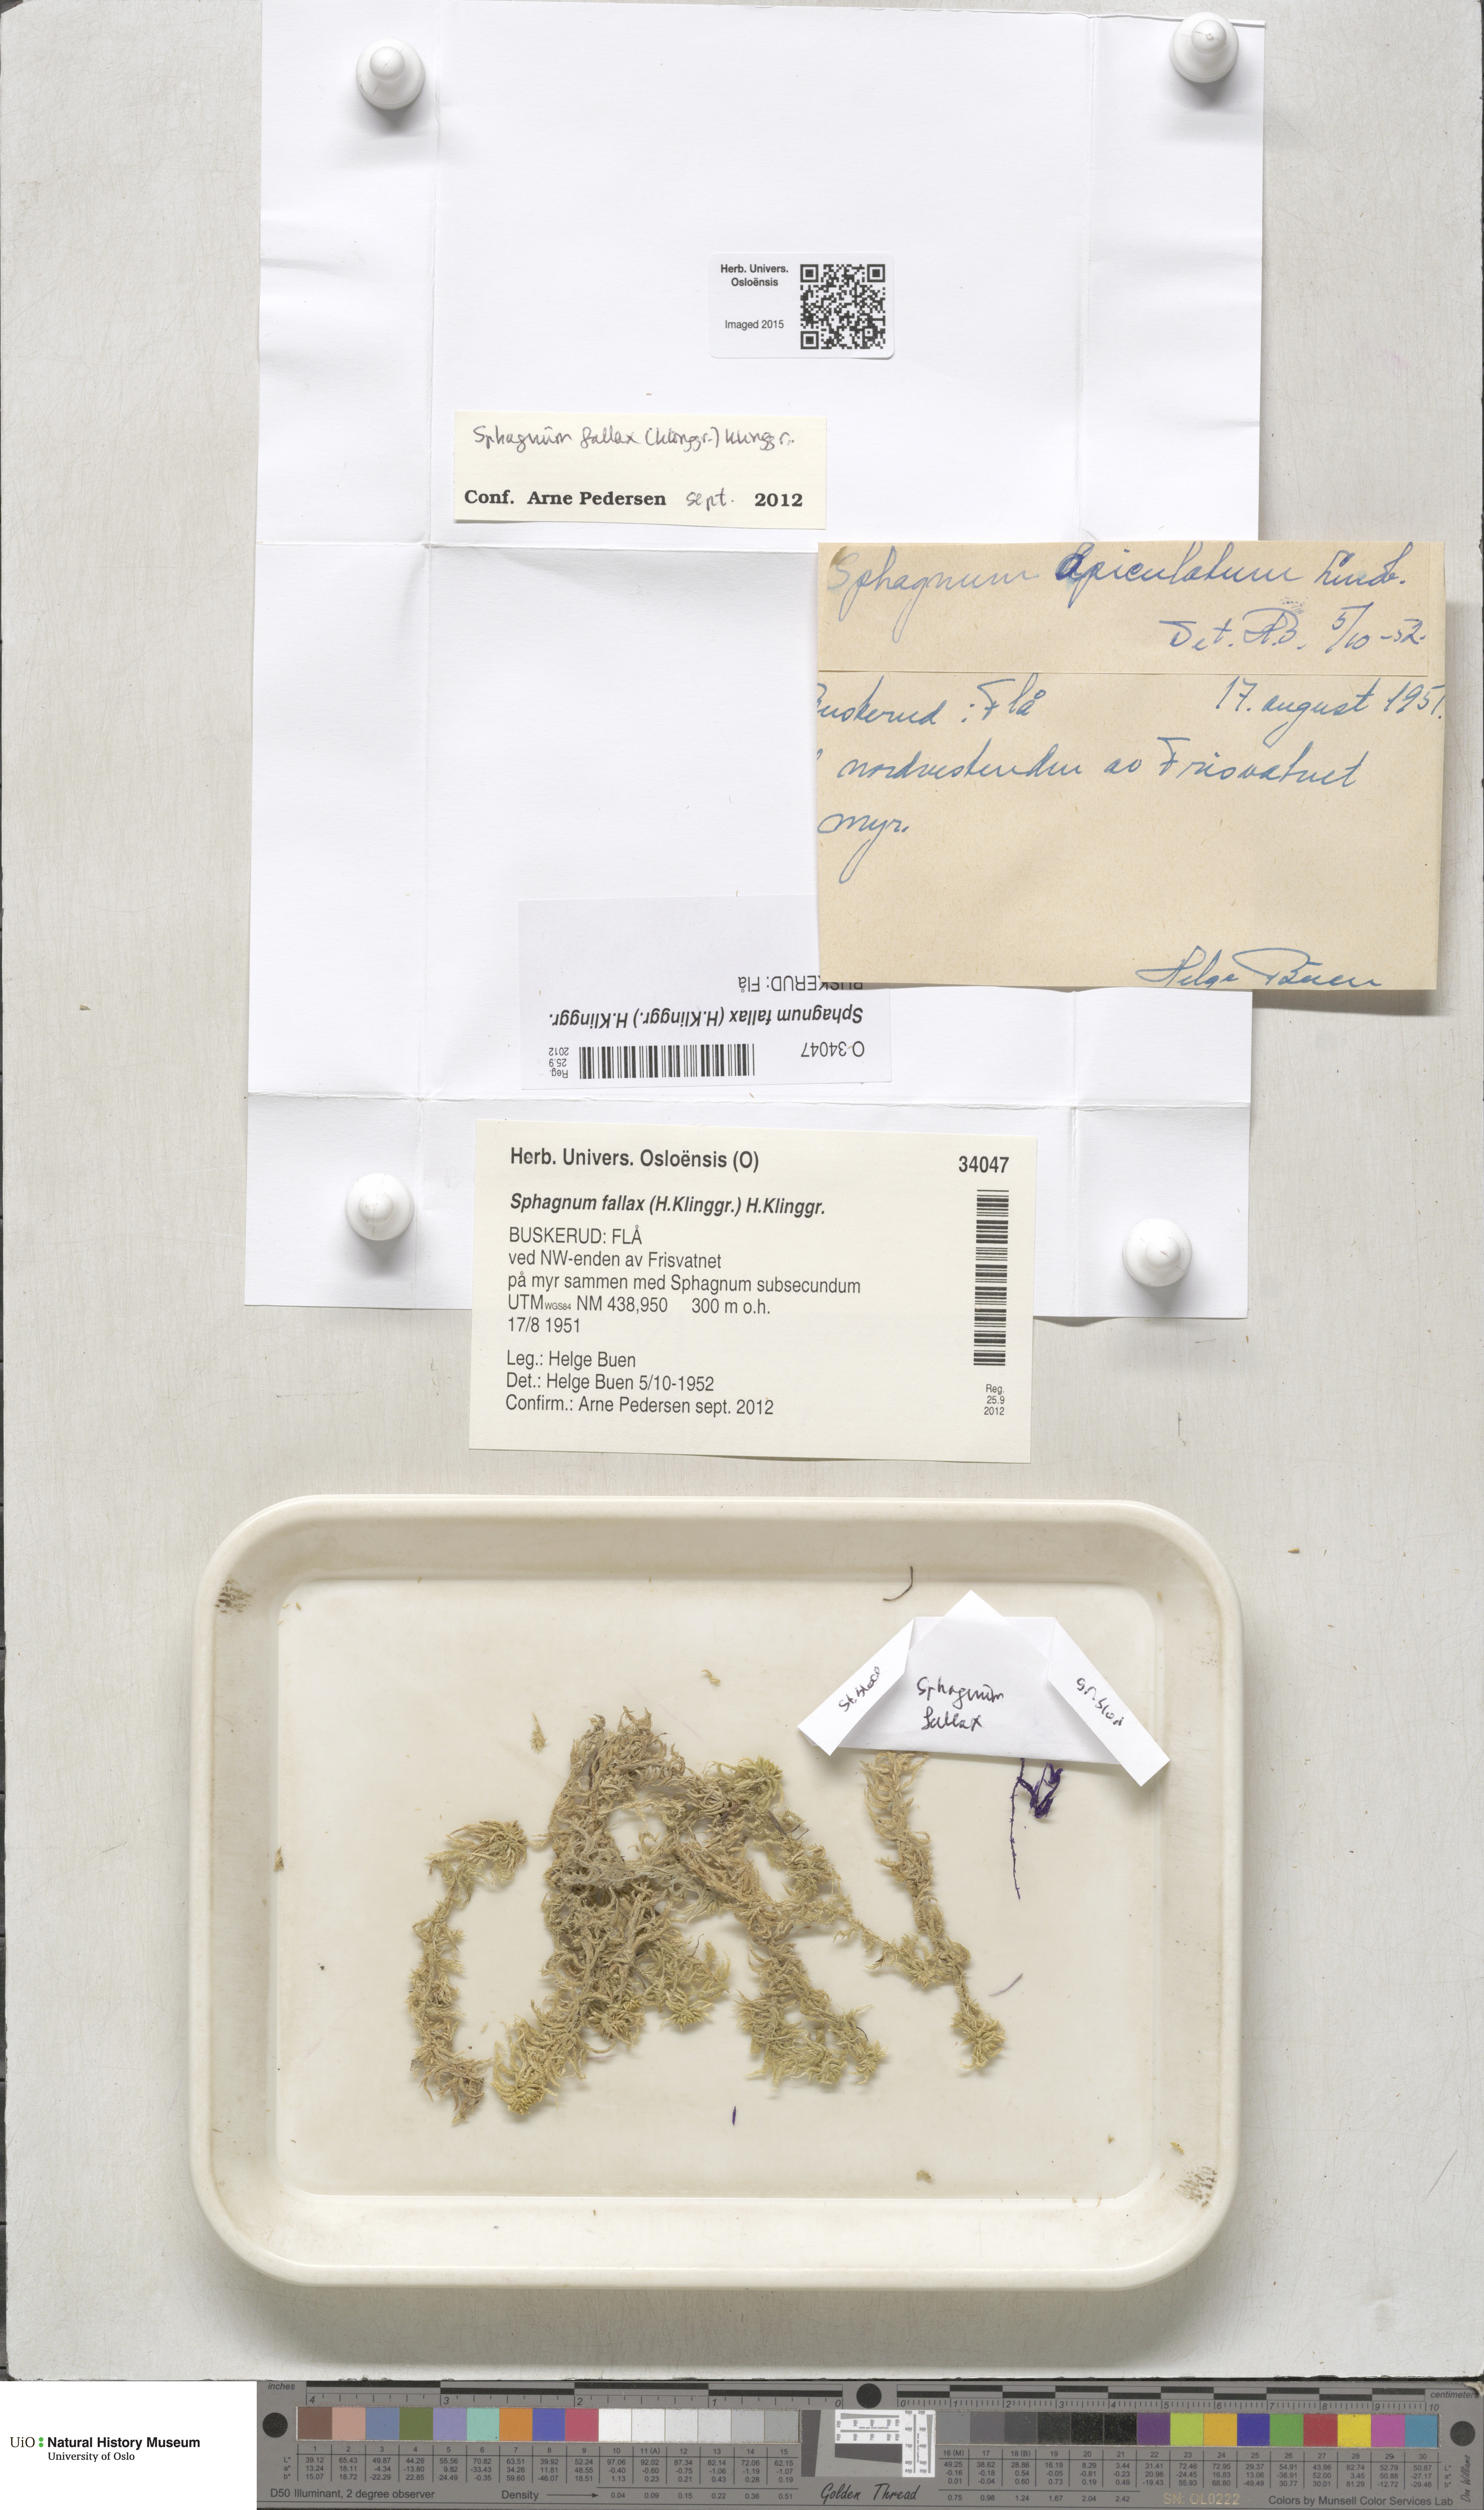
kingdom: Plantae
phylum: Bryophyta
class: Sphagnopsida
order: Sphagnales
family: Sphagnaceae
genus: Sphagnum
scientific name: Sphagnum fallax
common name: Flat-top peat moss
